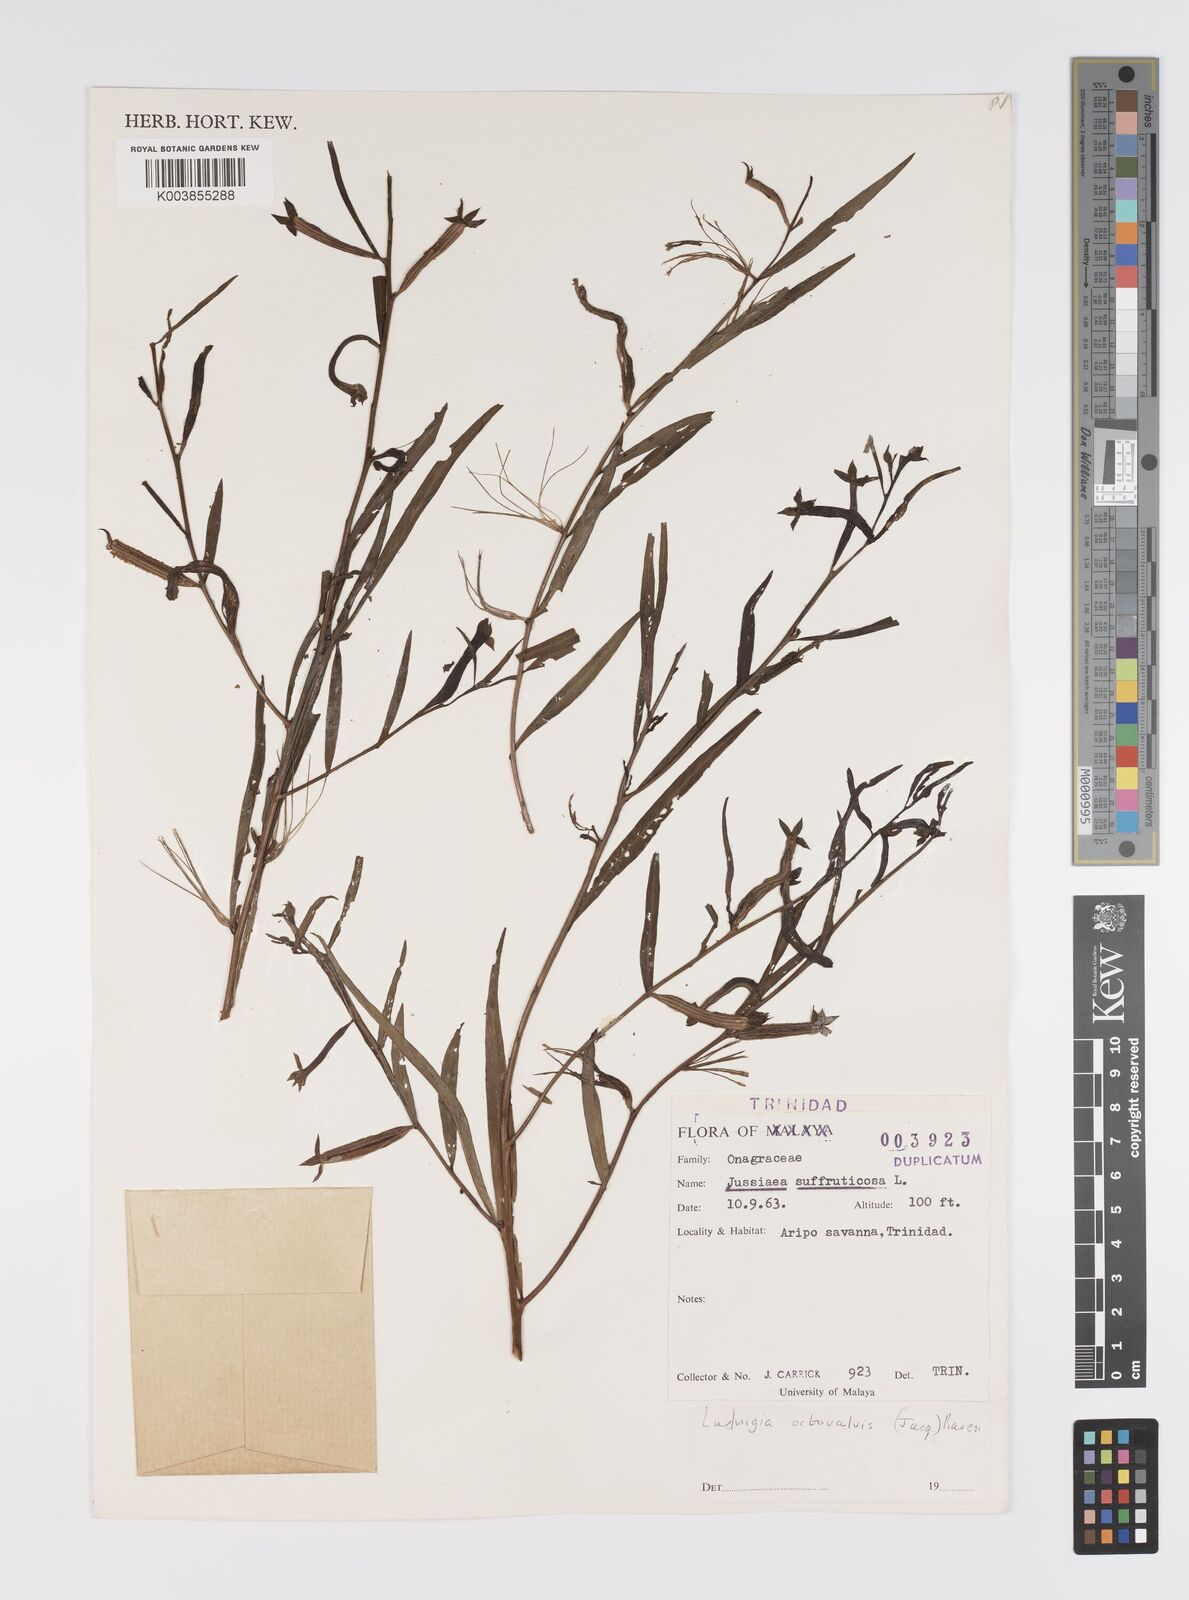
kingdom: Plantae
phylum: Tracheophyta
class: Magnoliopsida
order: Myrtales
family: Onagraceae
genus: Ludwigia
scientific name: Ludwigia octovalvis
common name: Water-primrose
